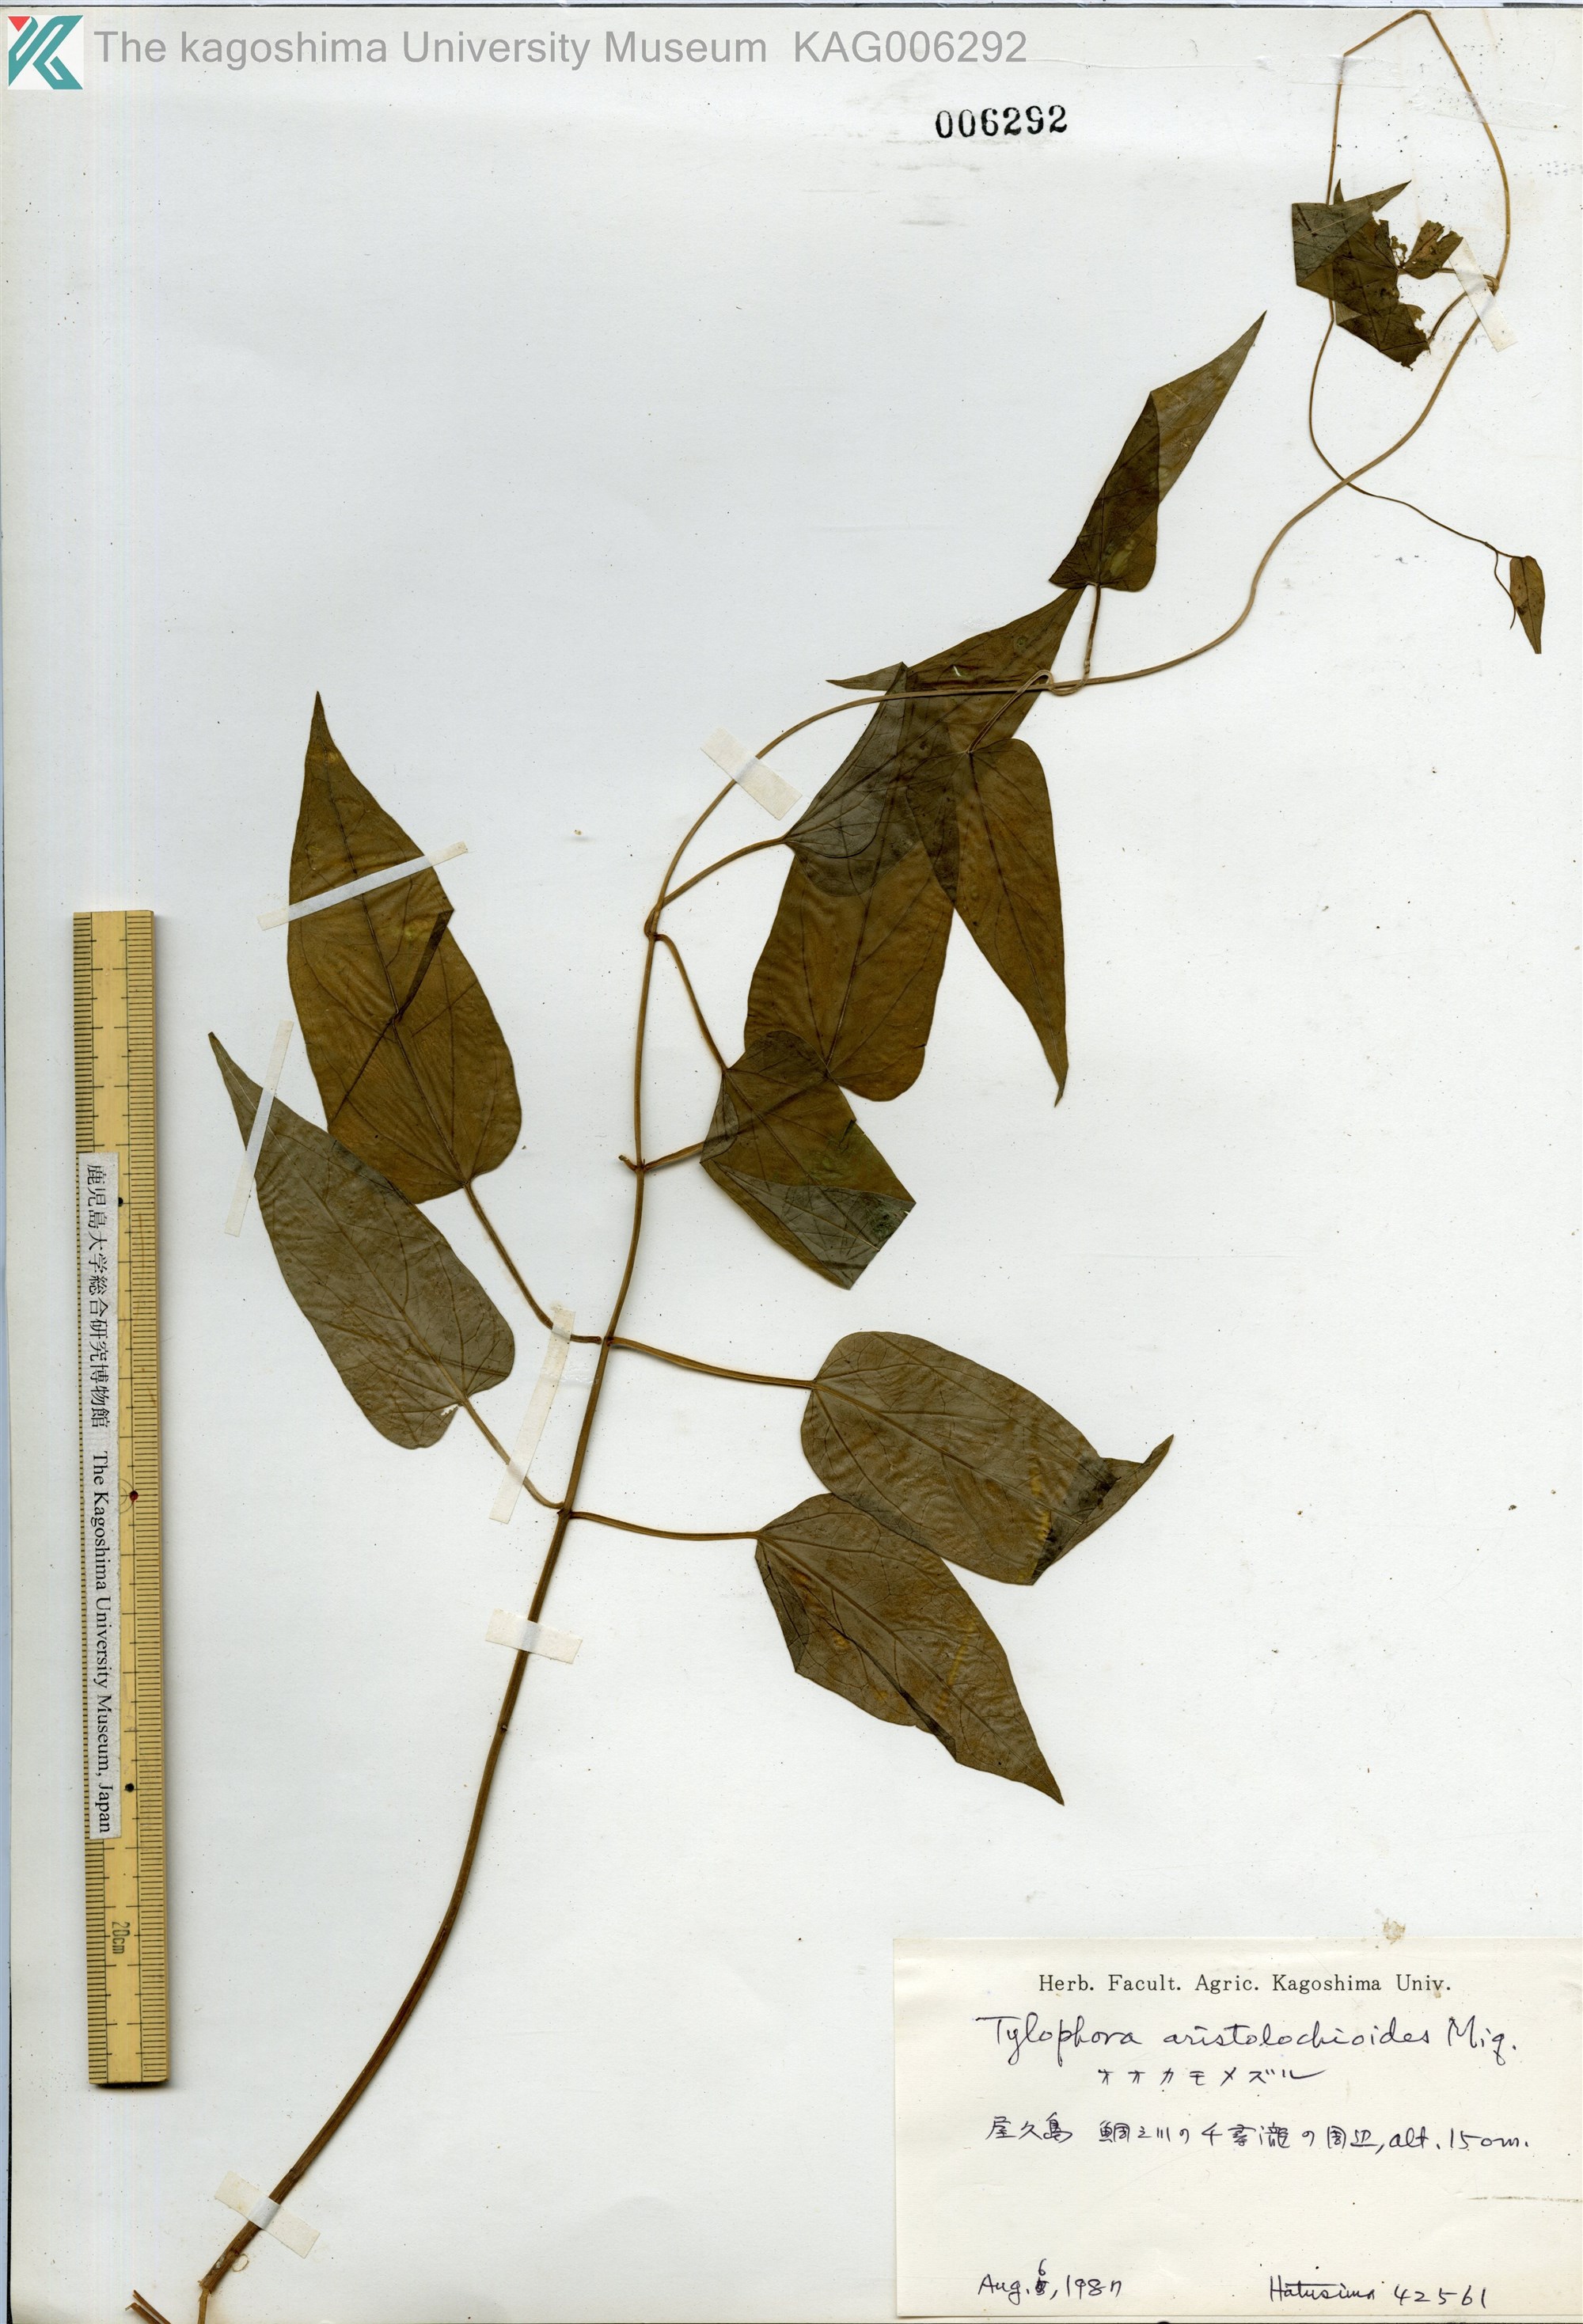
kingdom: Plantae
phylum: Tracheophyta
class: Magnoliopsida
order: Gentianales
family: Apocynaceae
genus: Vincetoxicum
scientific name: Vincetoxicum aristolochioides
